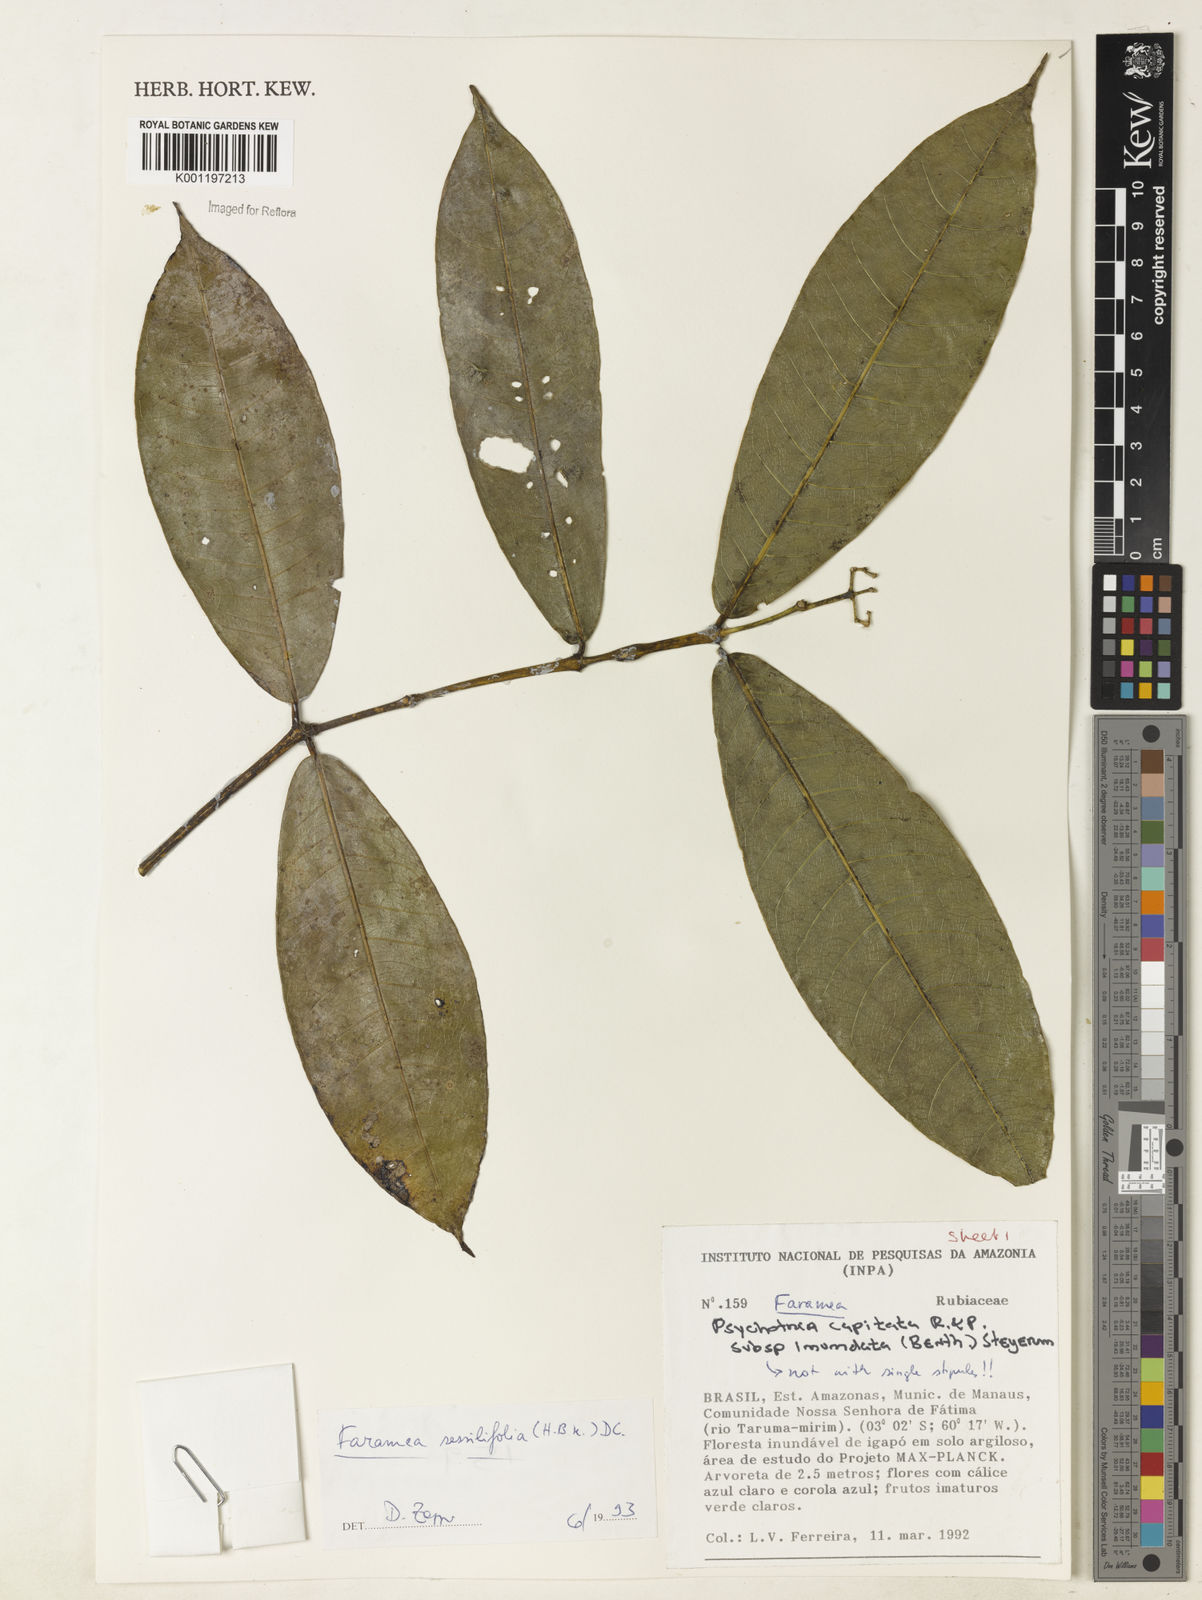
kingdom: Plantae
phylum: Tracheophyta
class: Magnoliopsida
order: Gentianales
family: Rubiaceae
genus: Faramea
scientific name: Faramea sessilifolia
